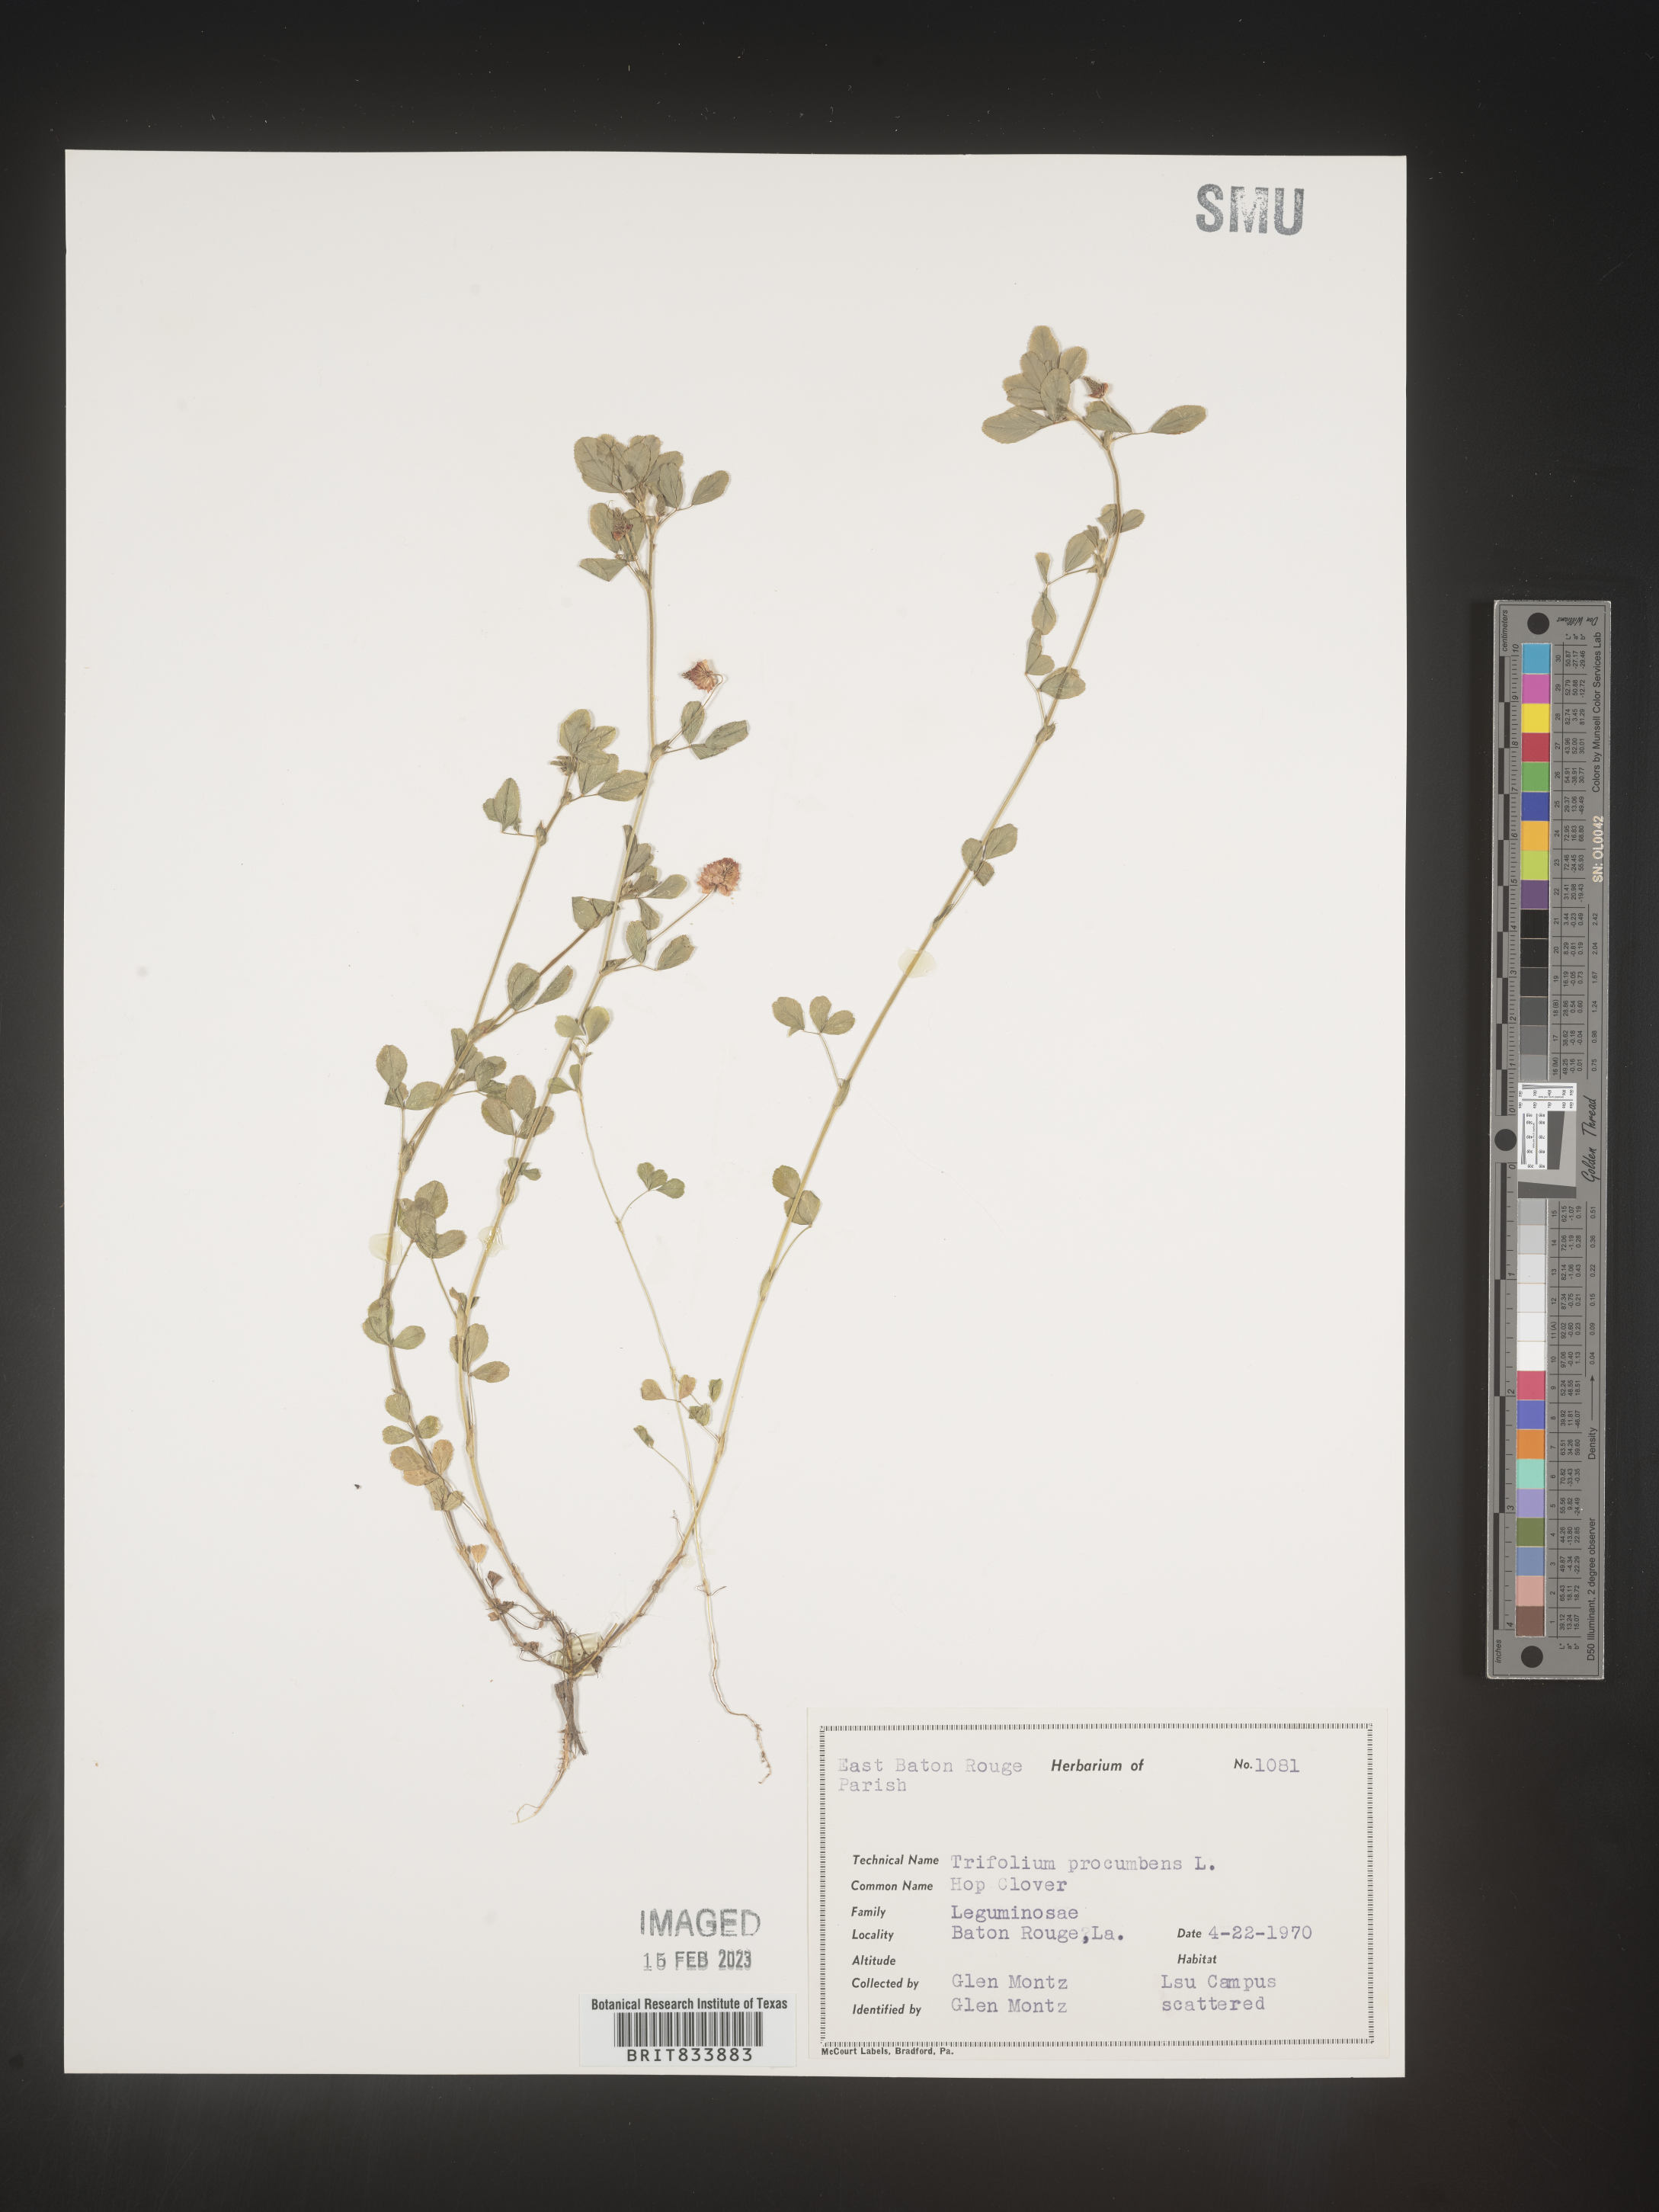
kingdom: Plantae
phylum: Tracheophyta
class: Magnoliopsida
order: Fabales
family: Fabaceae
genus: Trifolium
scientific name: Trifolium campestre
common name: Field clover
